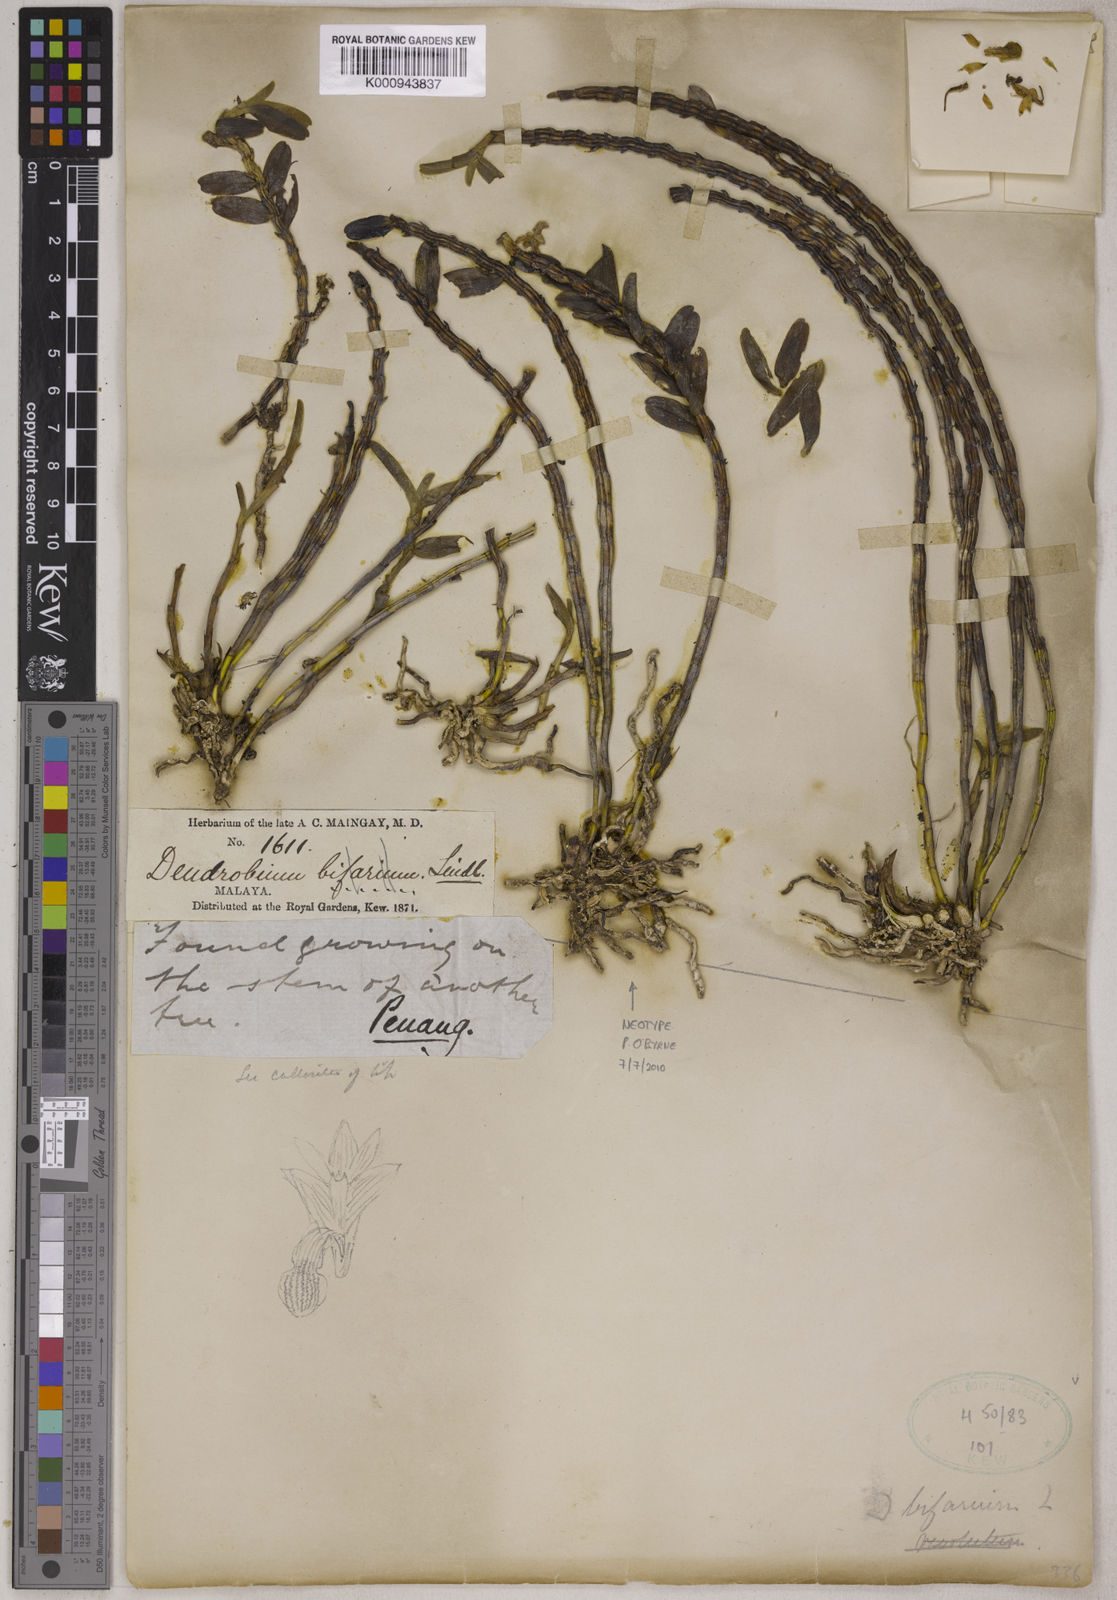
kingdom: Plantae
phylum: Tracheophyta
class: Liliopsida
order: Asparagales
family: Orchidaceae
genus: Appendicula
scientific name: Appendicula cornuta
